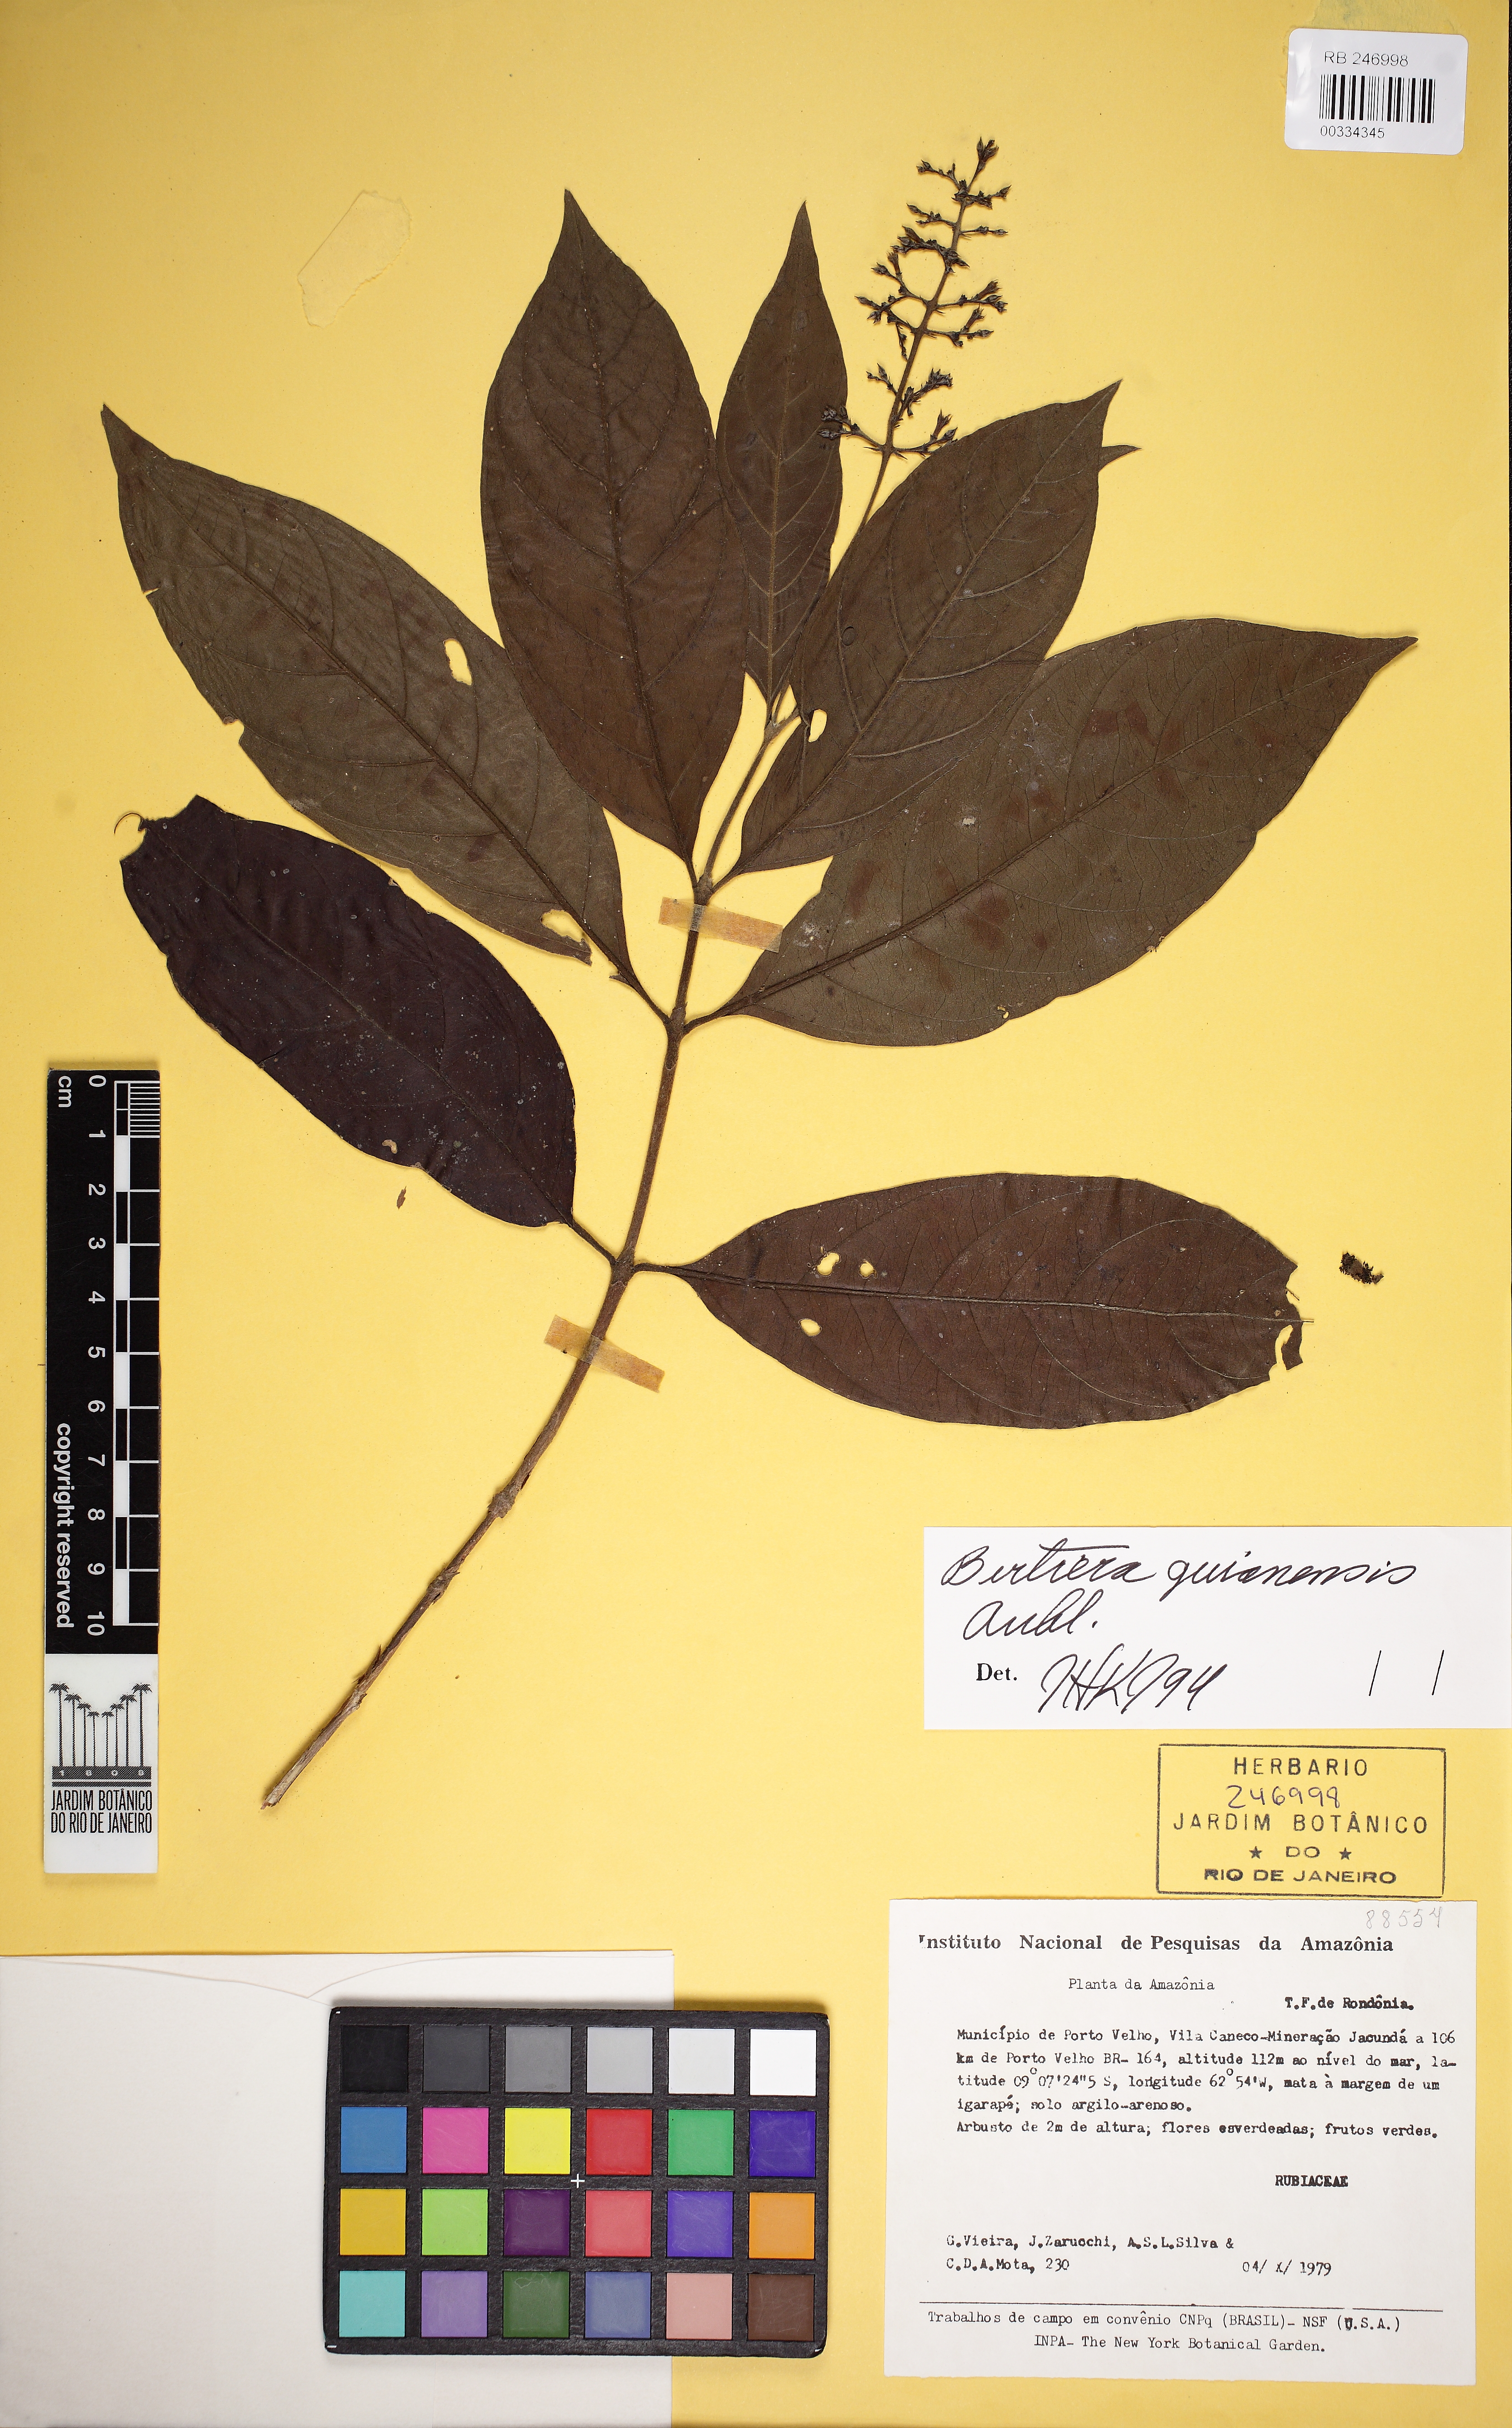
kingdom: Plantae
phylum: Tracheophyta
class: Magnoliopsida
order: Gentianales
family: Rubiaceae
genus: Bertiera
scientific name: Bertiera guianensis
